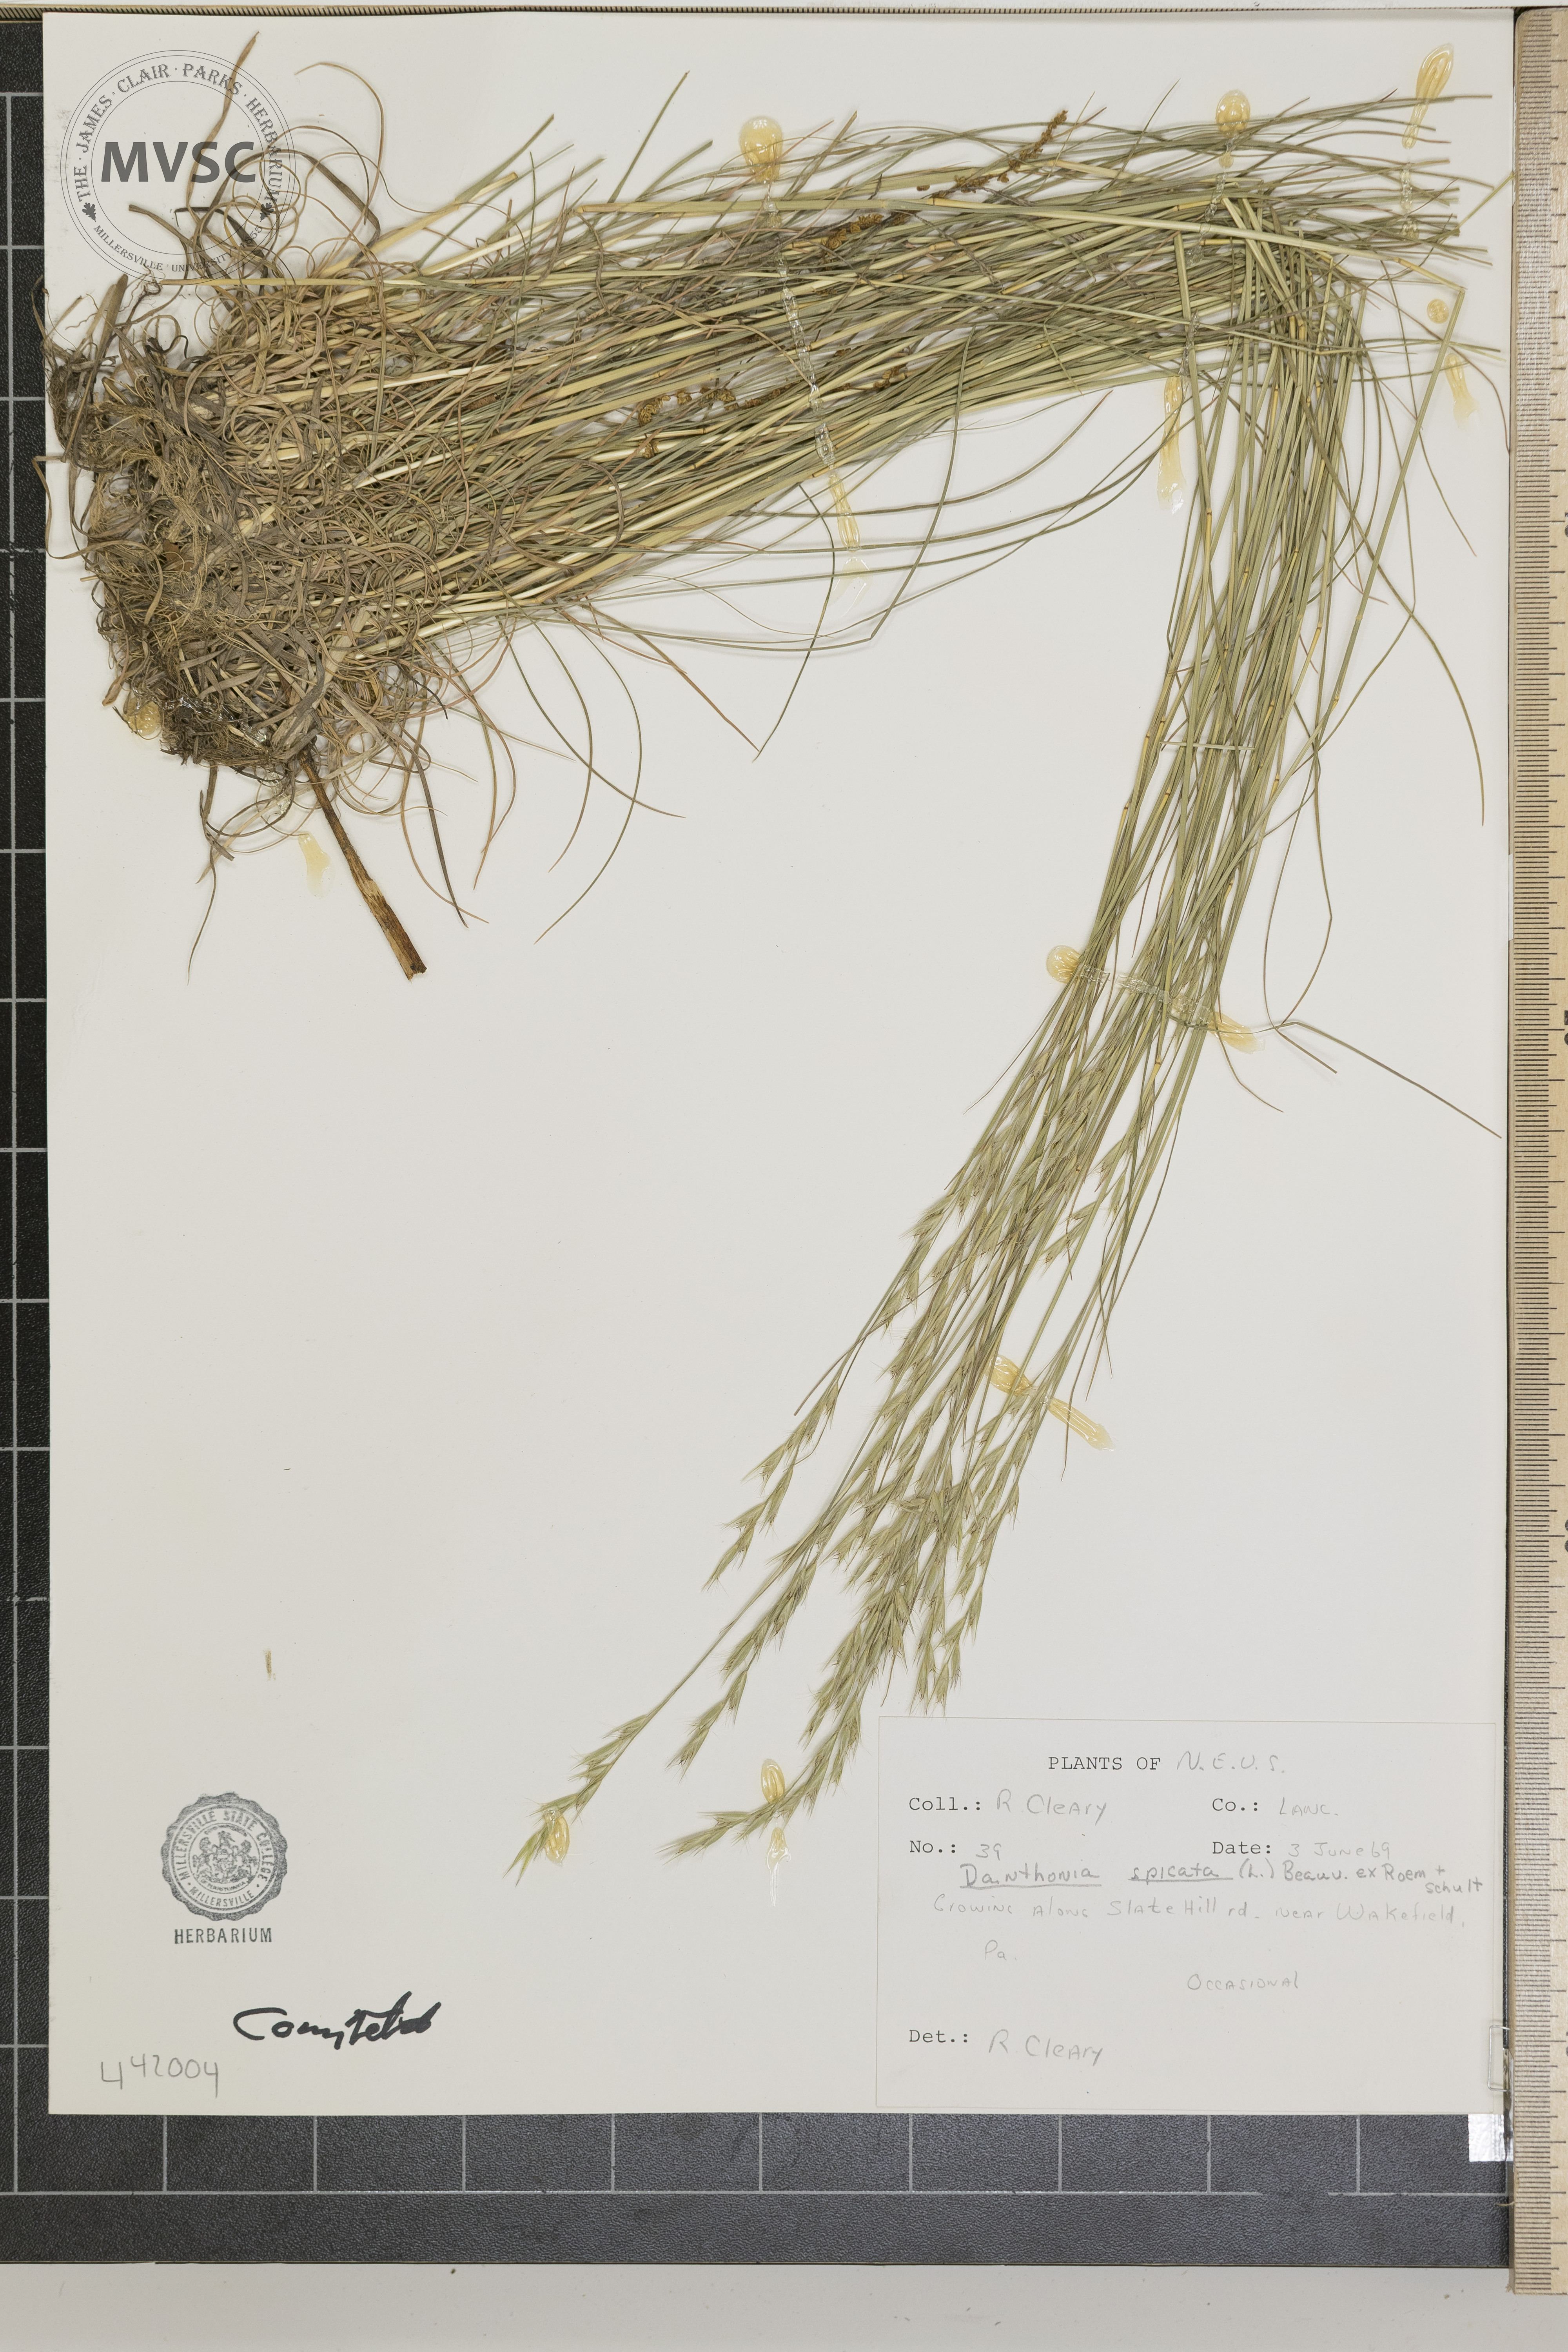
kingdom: Plantae
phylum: Tracheophyta
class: Liliopsida
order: Poales
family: Poaceae
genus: Danthonia
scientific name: Danthonia spicata
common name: Common wild oatgrass
